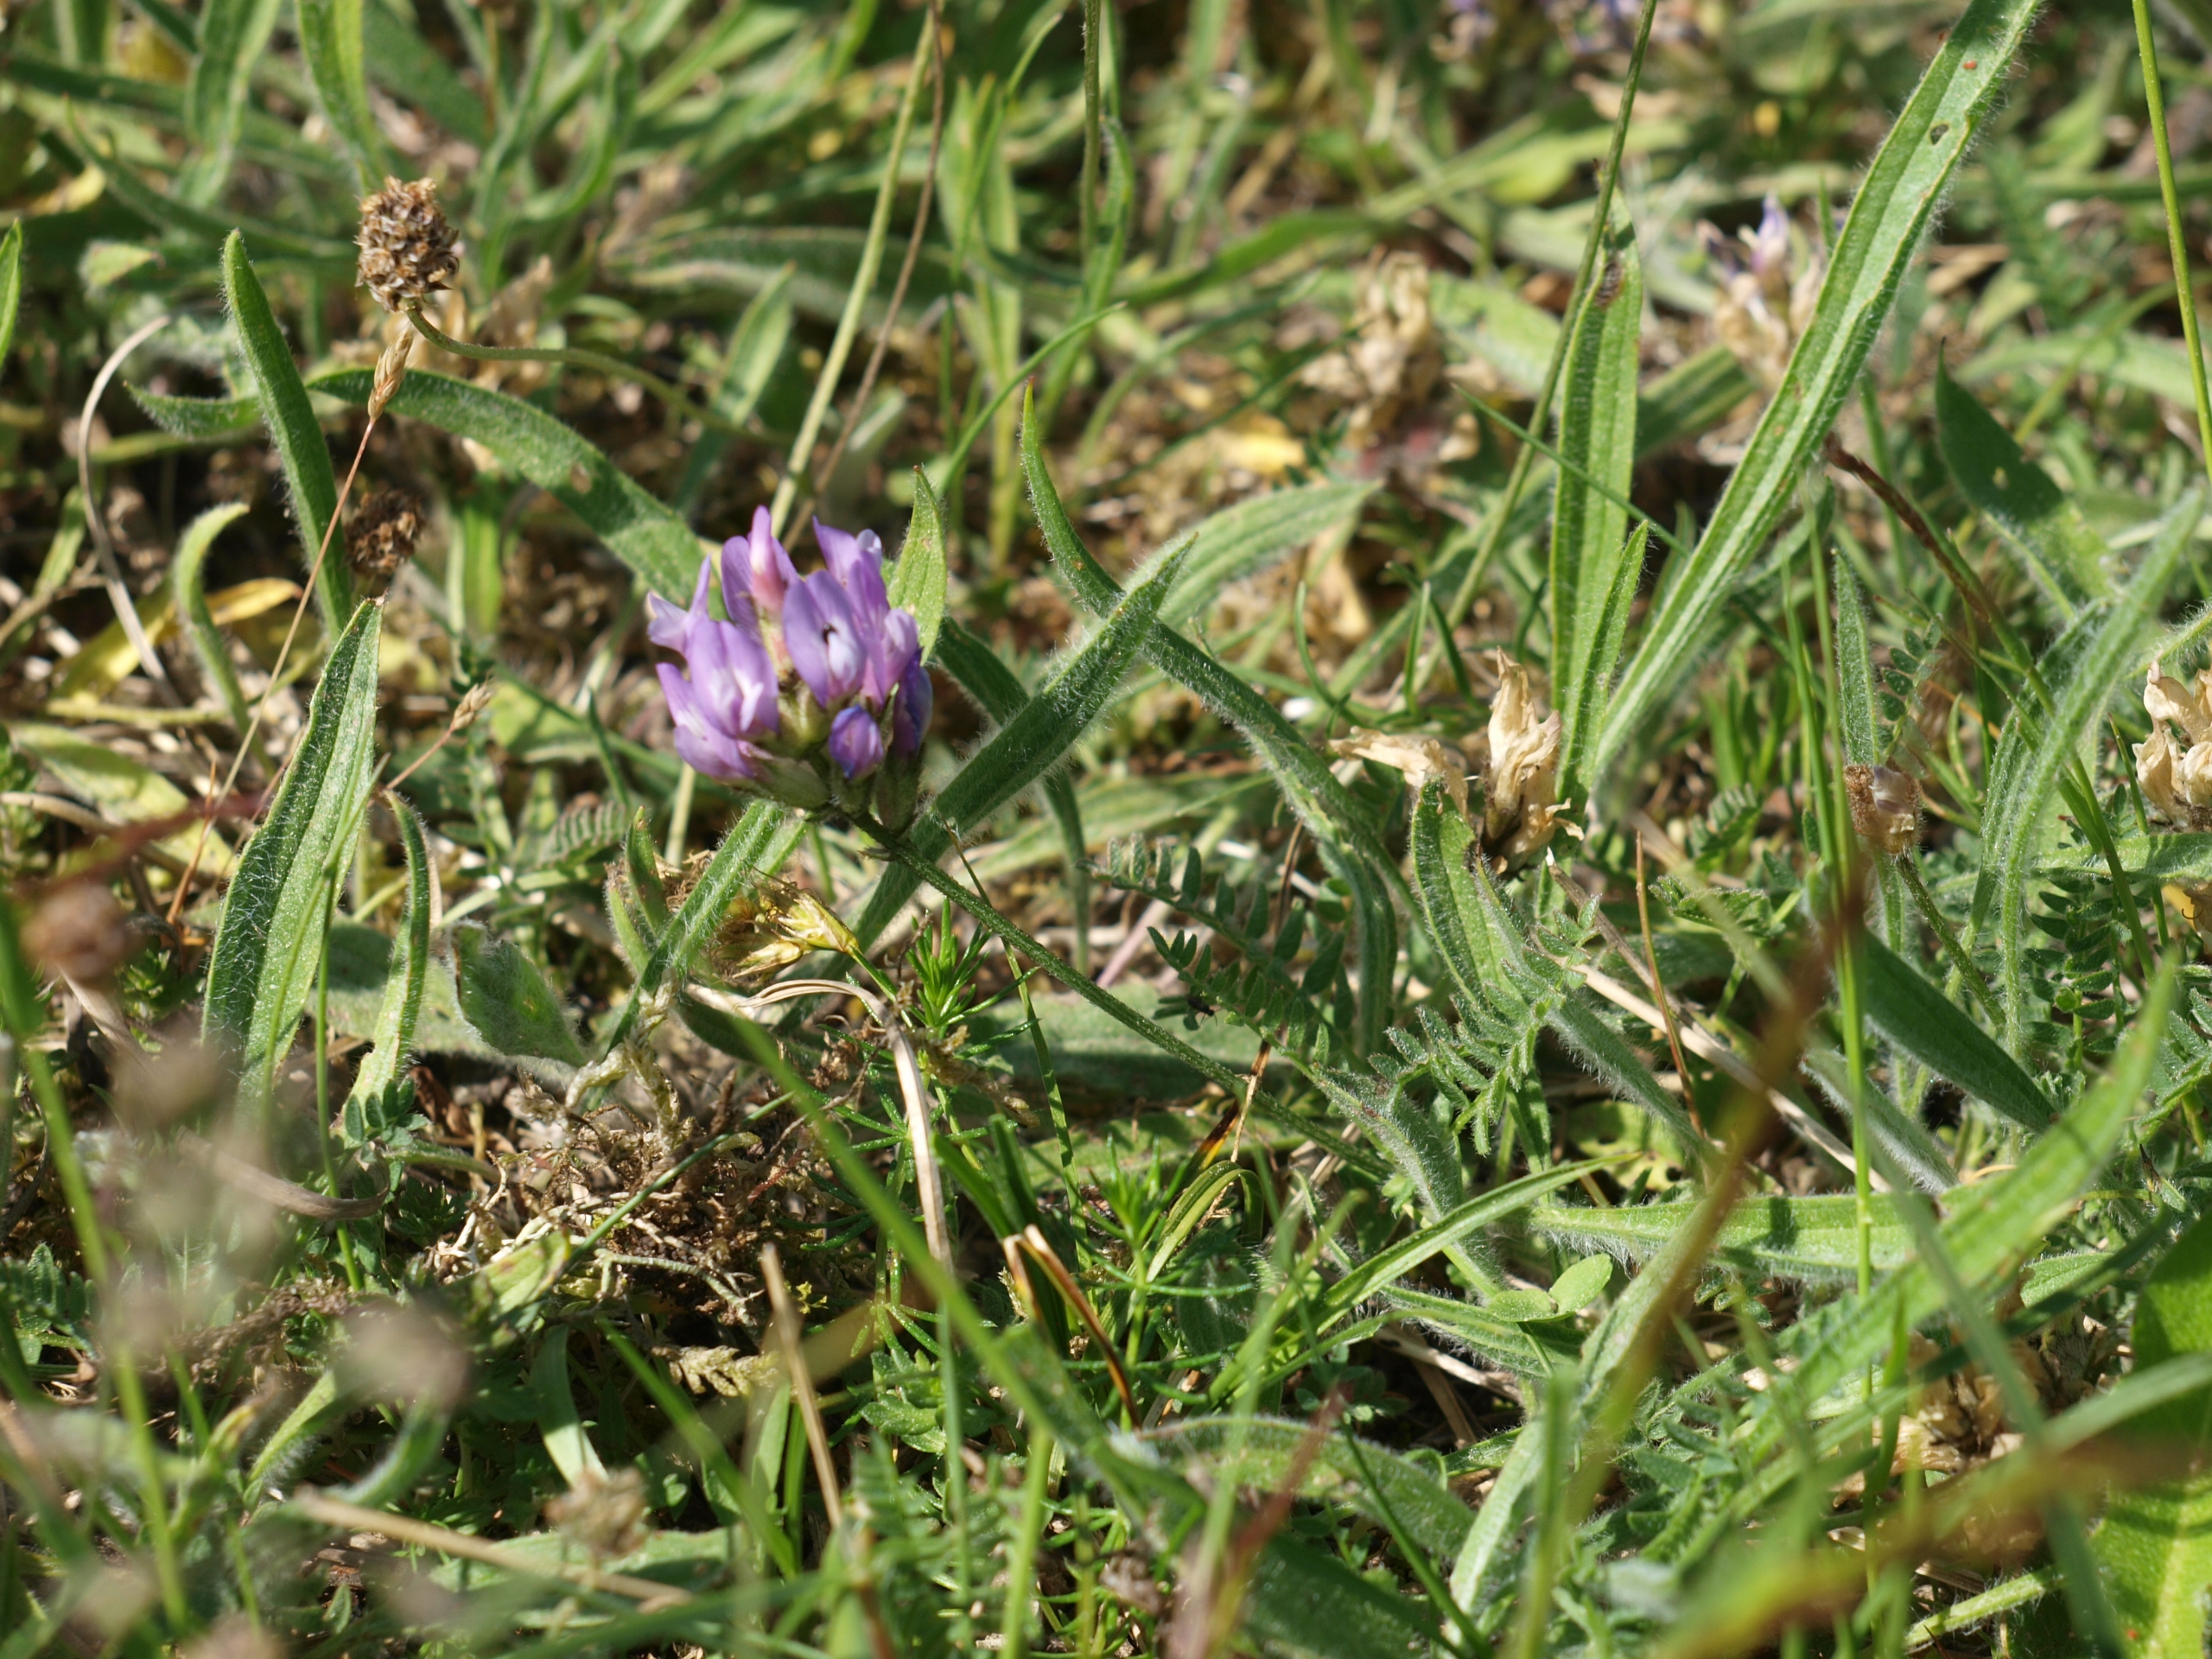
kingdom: Plantae
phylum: Tracheophyta
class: Magnoliopsida
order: Fabales
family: Fabaceae
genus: Astragalus
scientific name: Astragalus danicus
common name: Dansk astragel
